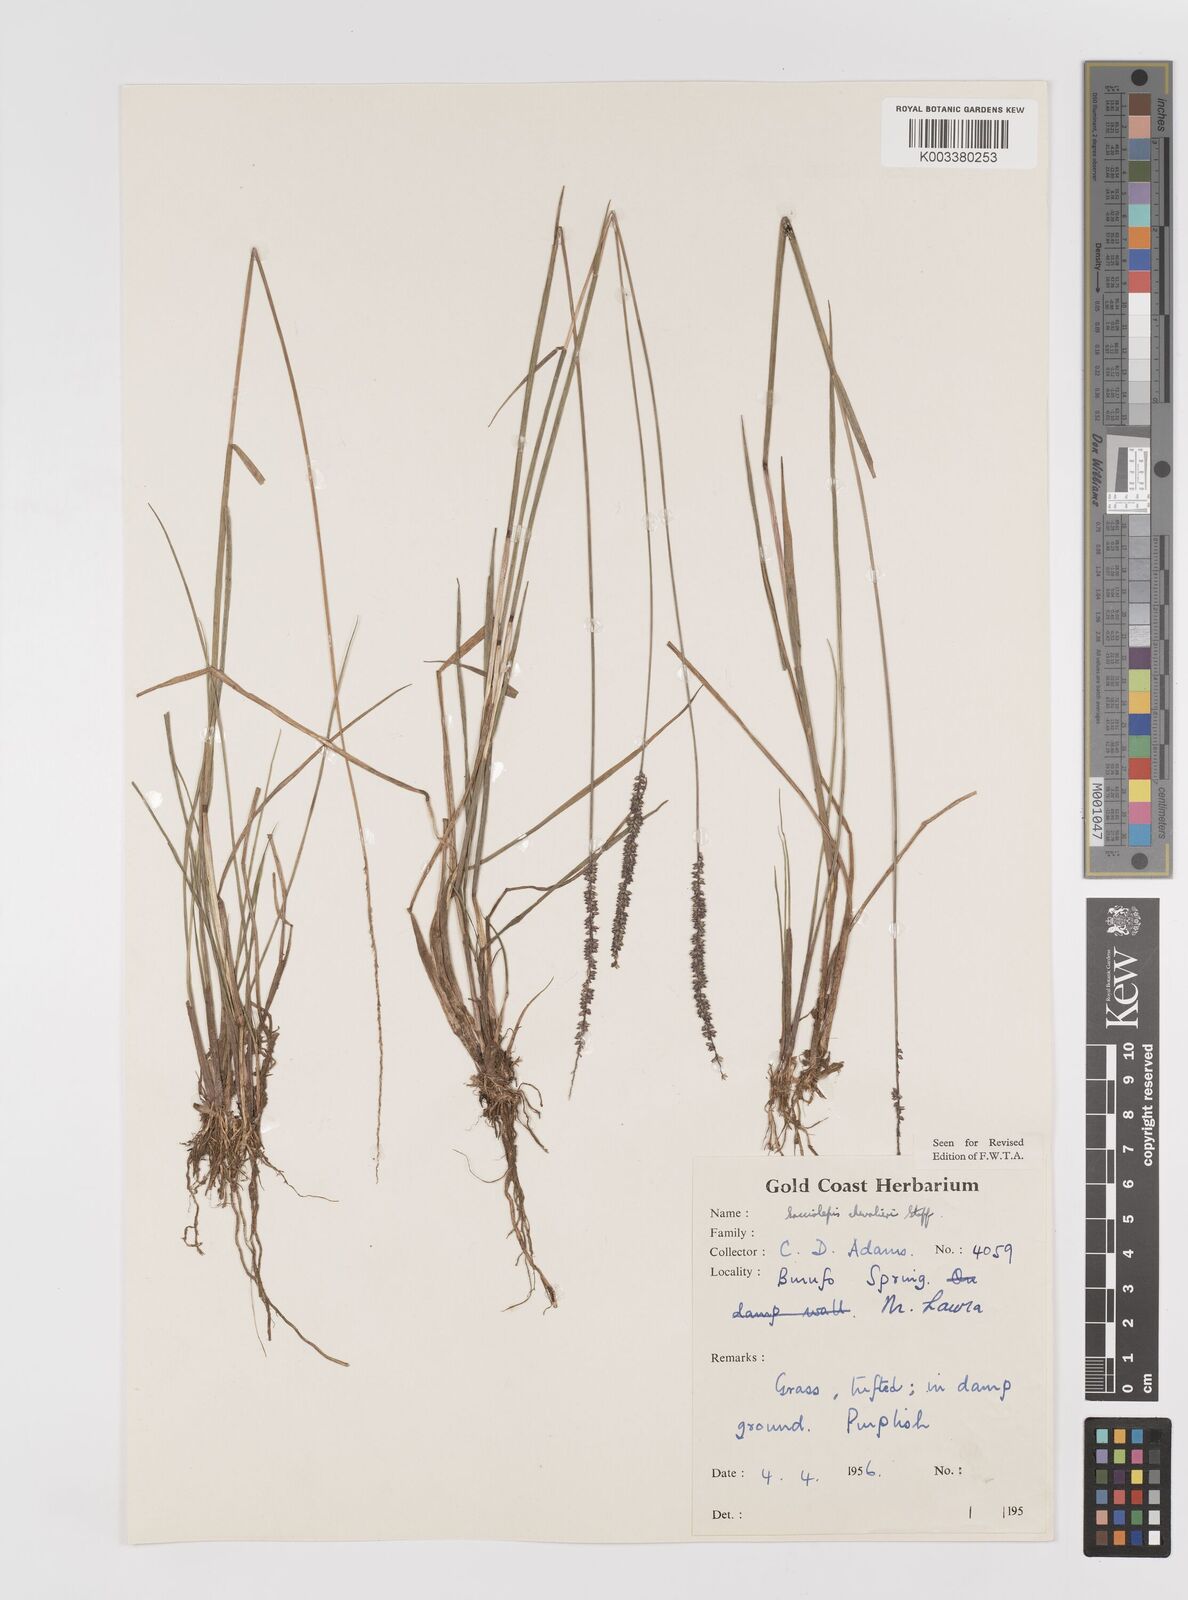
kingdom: Plantae
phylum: Tracheophyta
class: Liliopsida
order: Poales
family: Poaceae
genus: Sacciolepis
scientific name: Sacciolepis chevalieri
